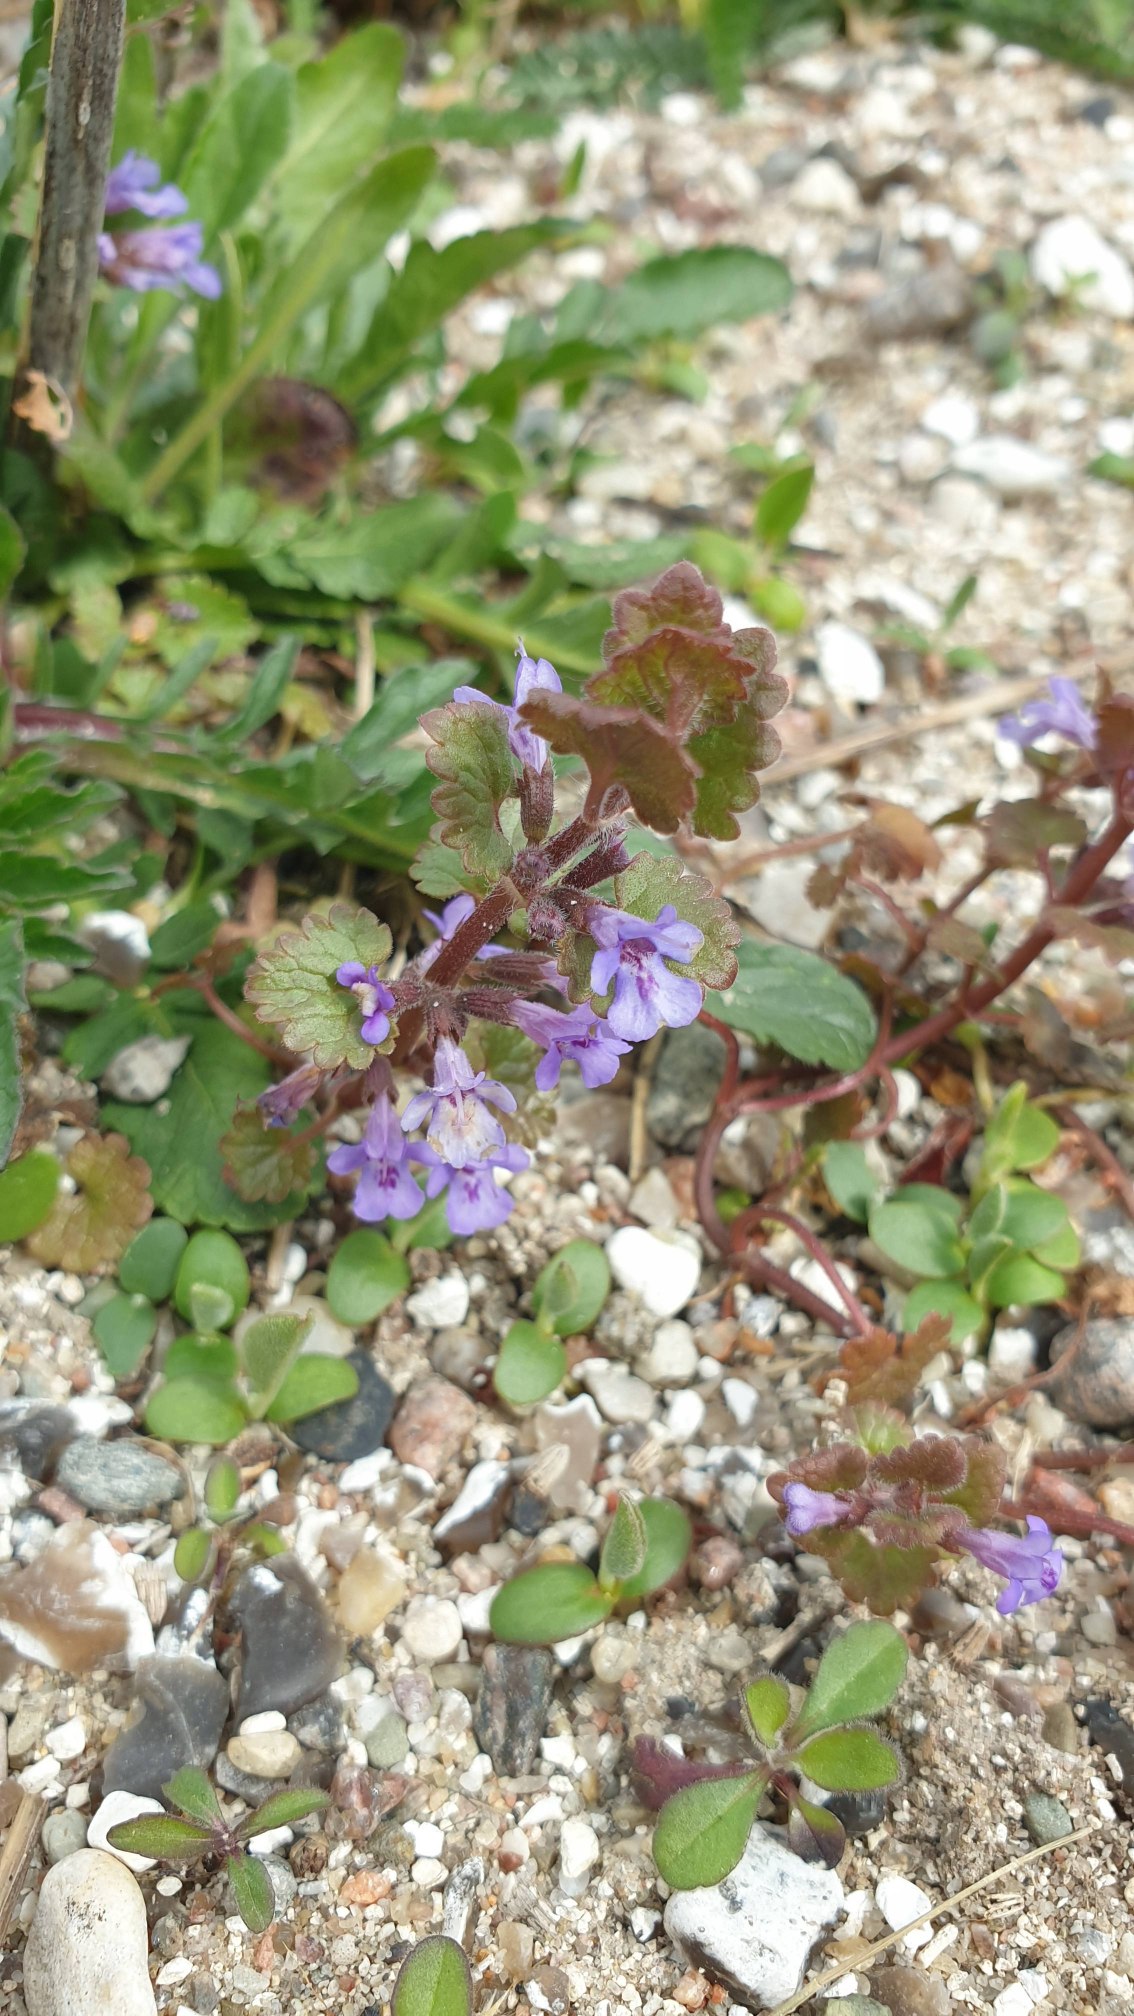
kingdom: Plantae
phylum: Tracheophyta
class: Magnoliopsida
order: Lamiales
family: Lamiaceae
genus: Glechoma
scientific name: Glechoma hederacea
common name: Korsknap
